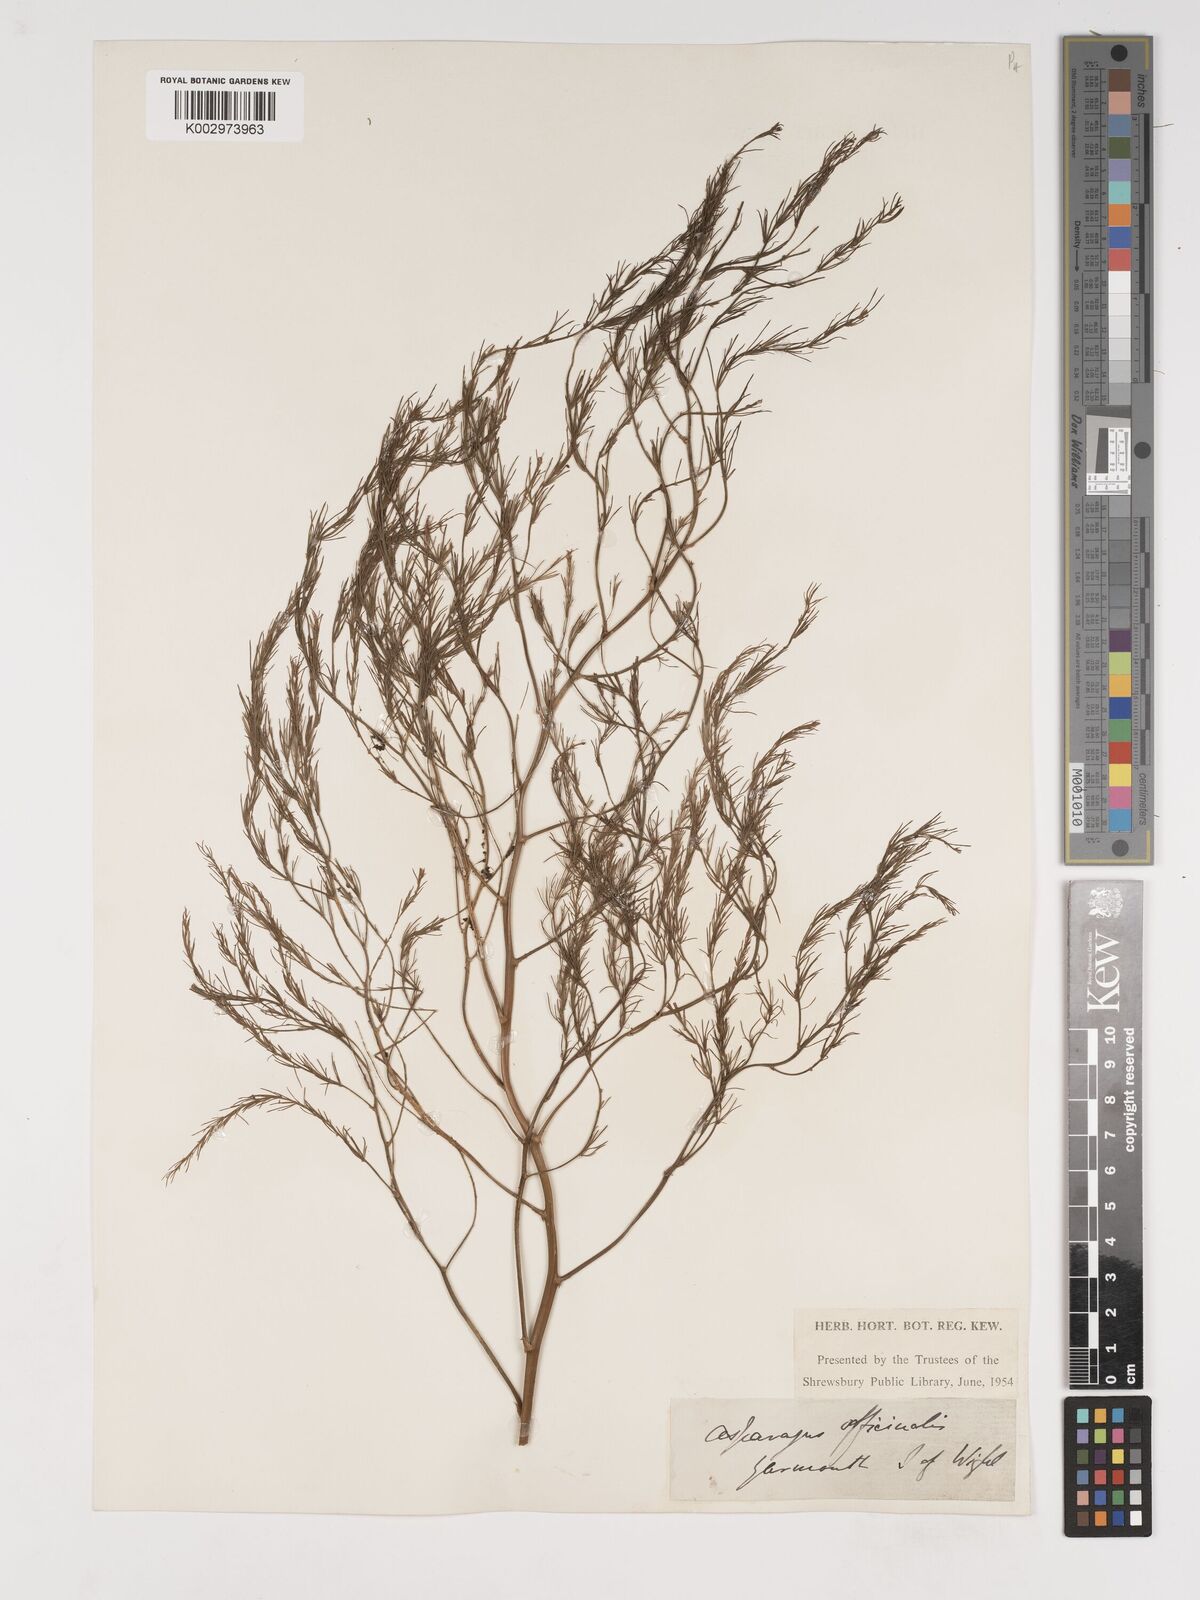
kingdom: Plantae
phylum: Tracheophyta
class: Liliopsida
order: Asparagales
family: Asparagaceae
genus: Asparagus
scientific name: Asparagus officinalis
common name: Garden asparagus
